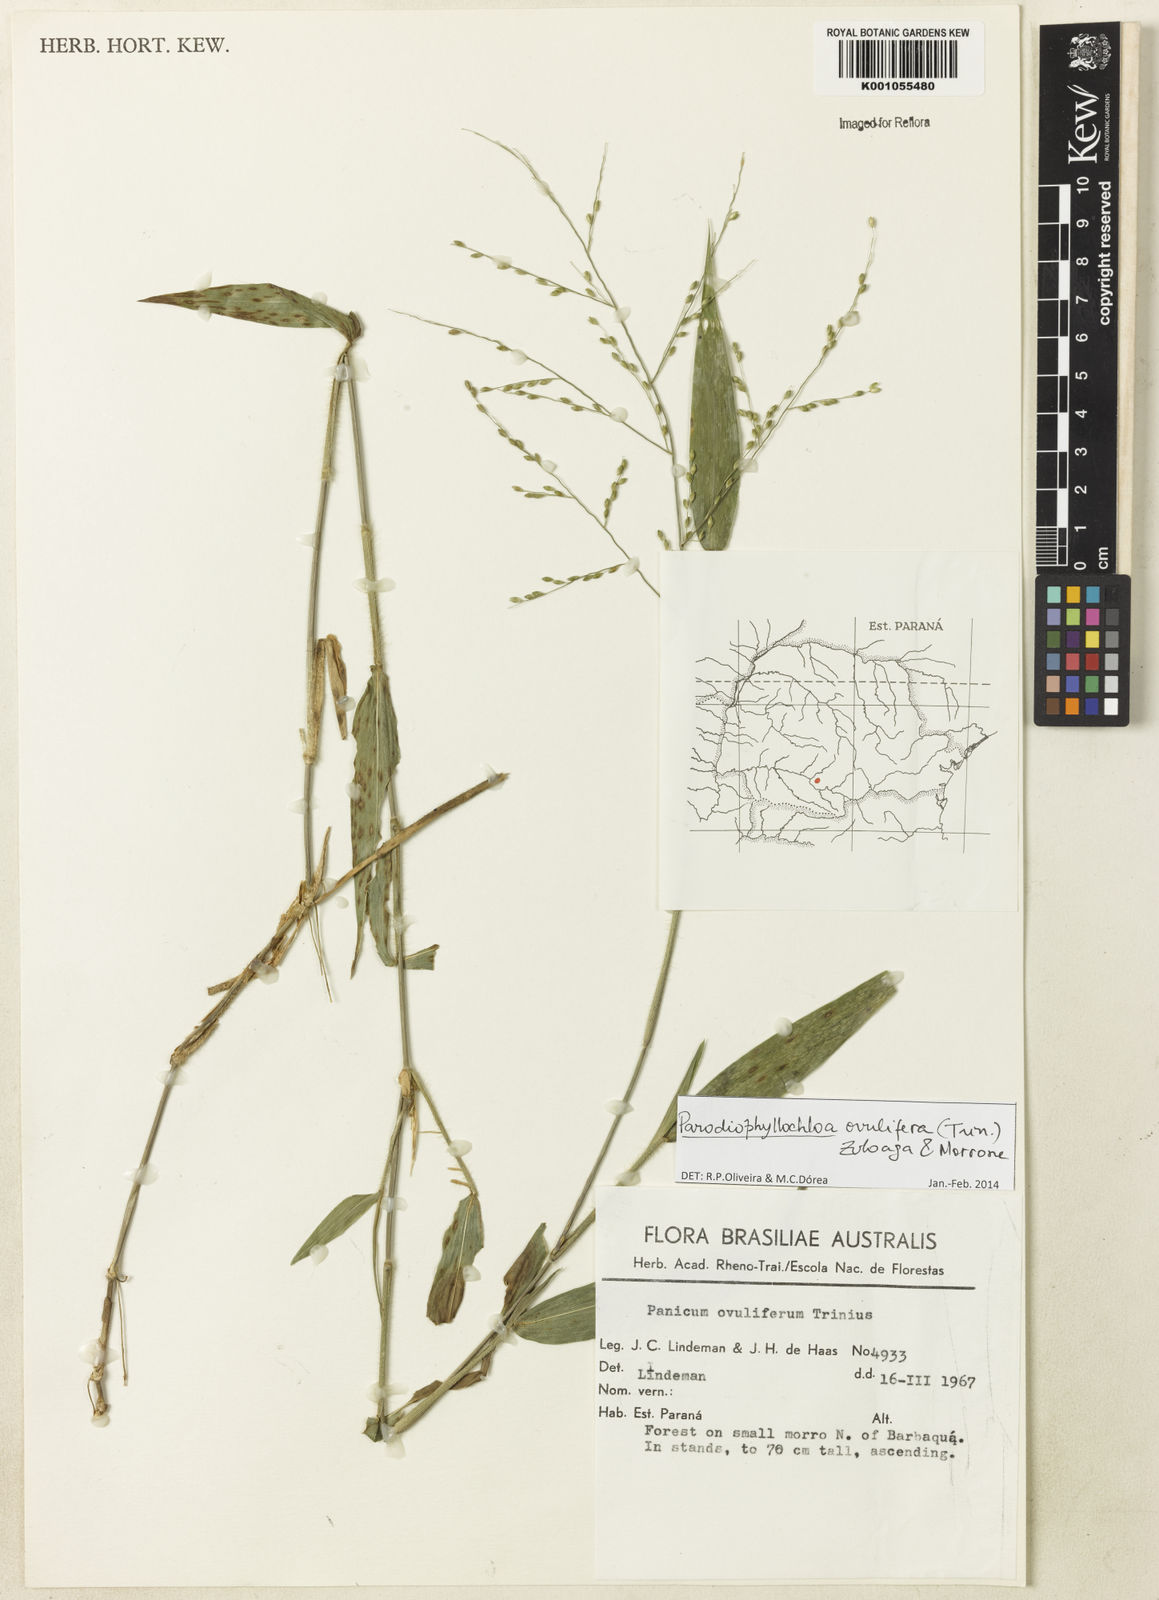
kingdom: Plantae
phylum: Tracheophyta
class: Liliopsida
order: Poales
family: Poaceae
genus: Parodiophyllochloa
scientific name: Parodiophyllochloa ovulifera
